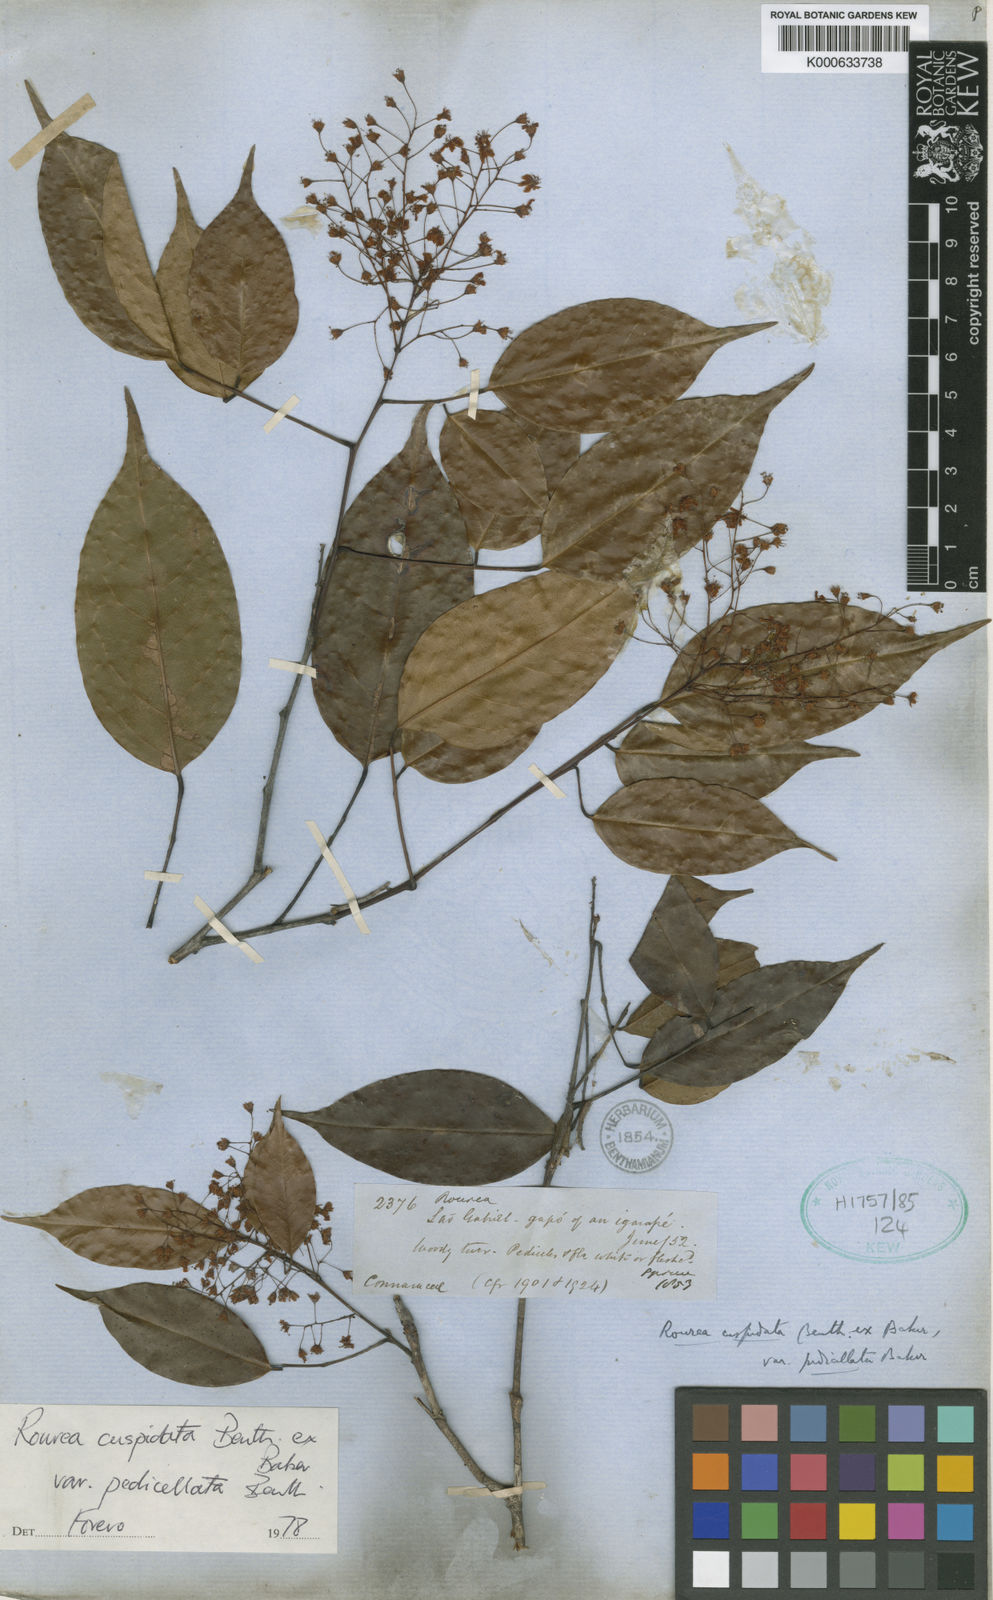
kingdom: Plantae
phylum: Tracheophyta
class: Magnoliopsida
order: Oxalidales
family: Connaraceae
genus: Rourea
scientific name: Rourea cuspidata
